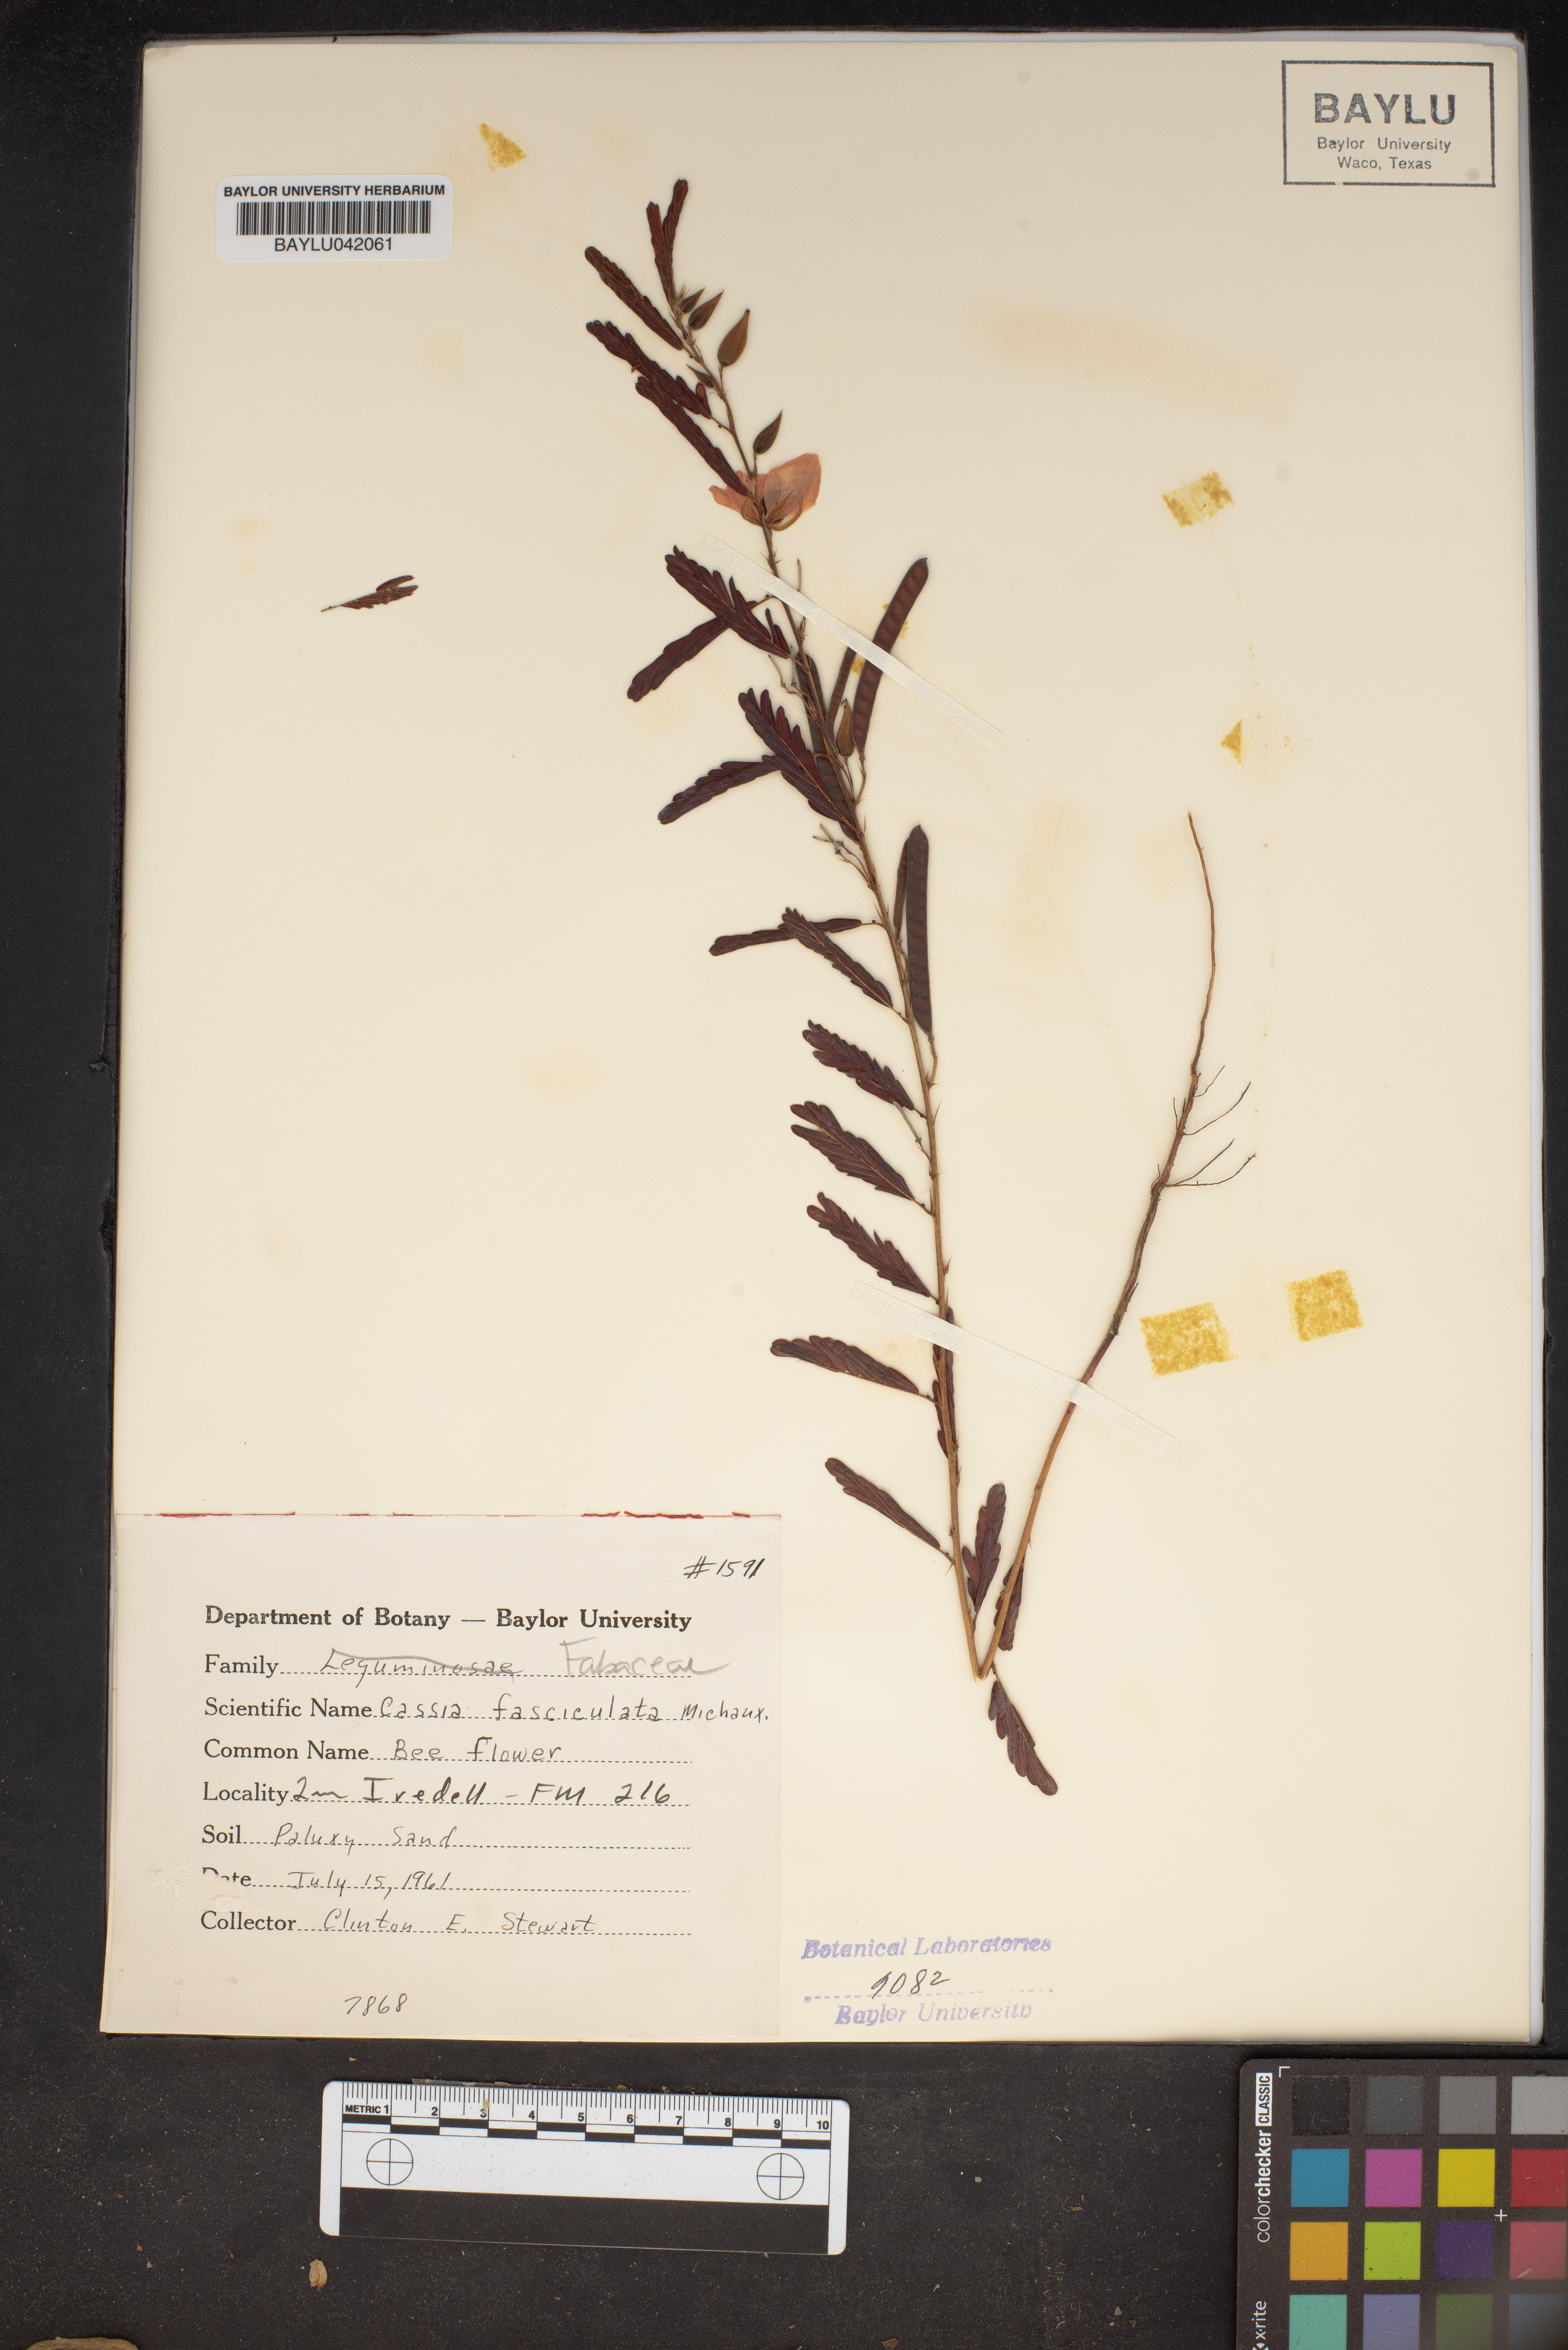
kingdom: Plantae
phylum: Tracheophyta
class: Magnoliopsida
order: Fabales
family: Fabaceae
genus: Chamaecrista
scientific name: Chamaecrista fasciculata
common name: Golden cassia
